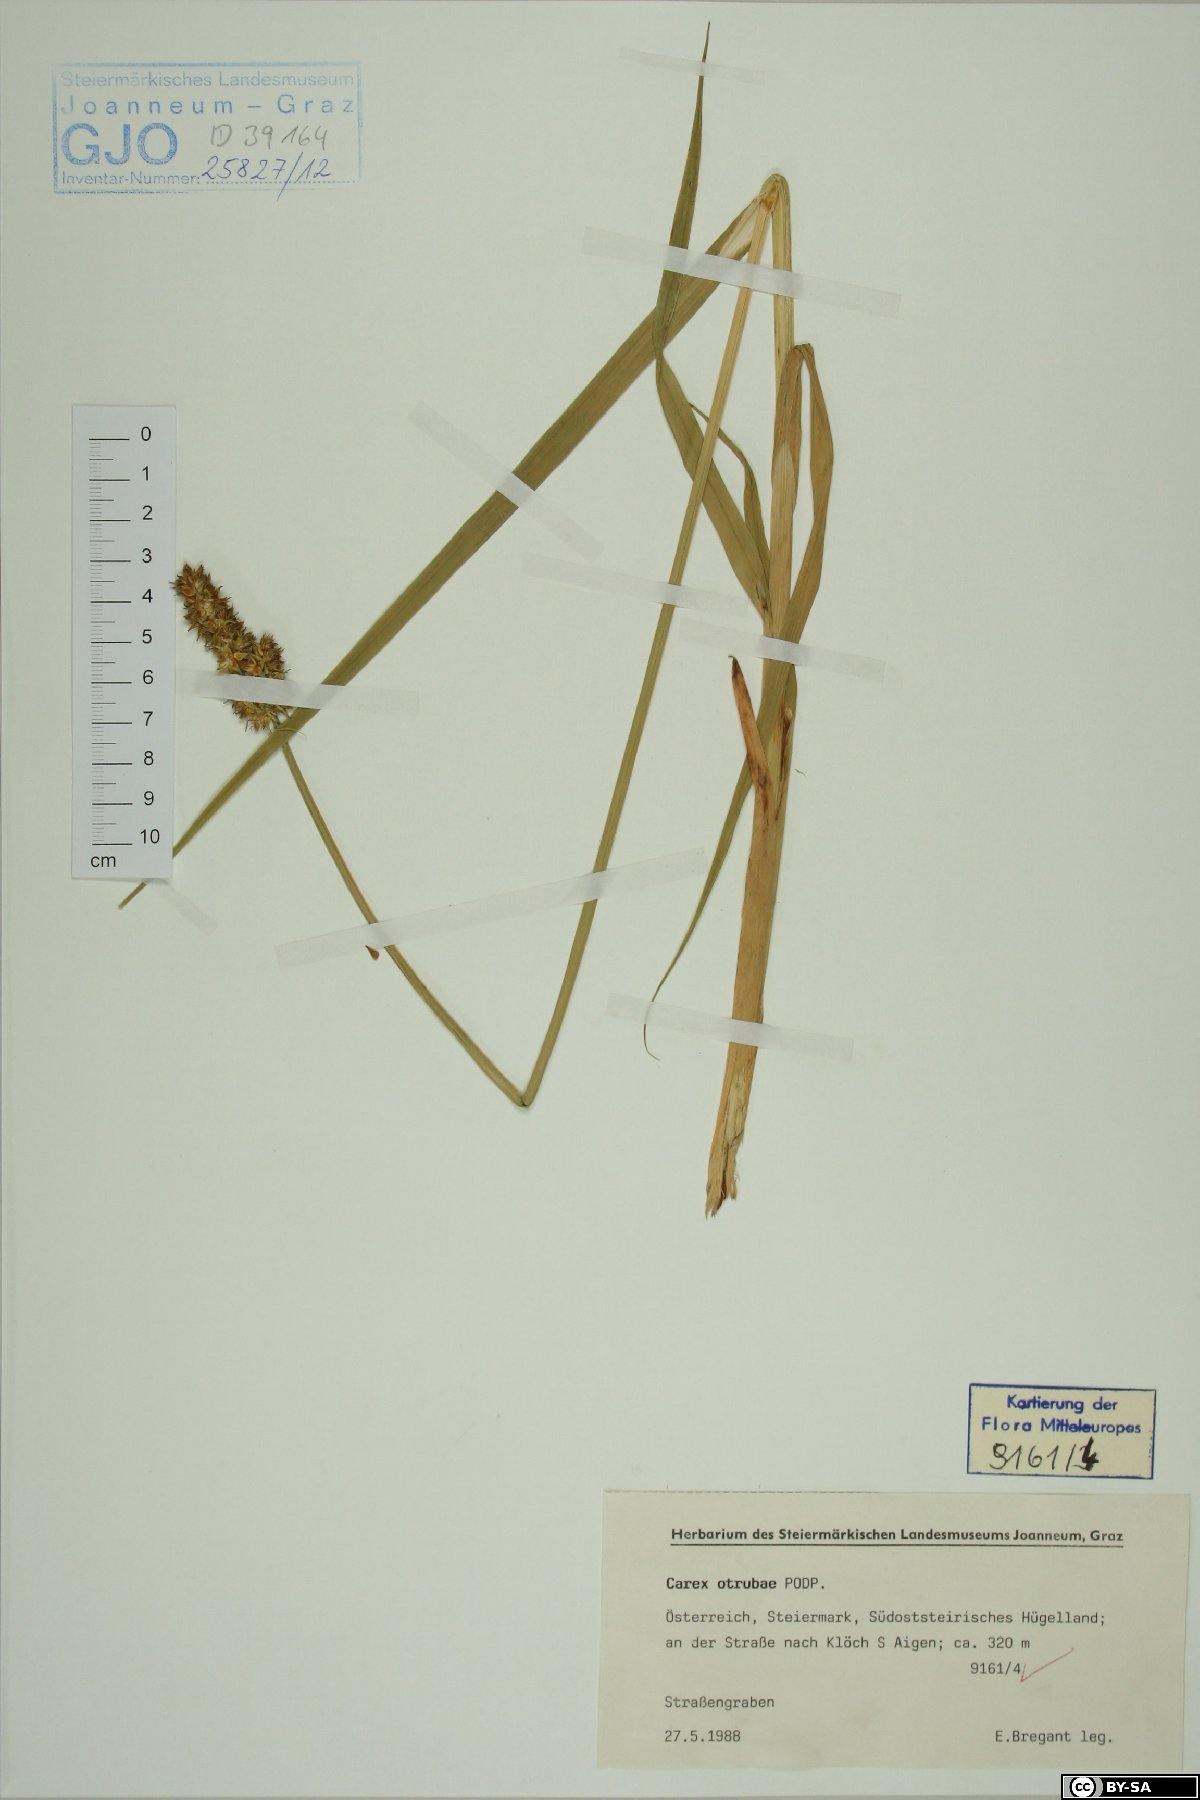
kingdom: Plantae
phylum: Tracheophyta
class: Liliopsida
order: Poales
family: Cyperaceae
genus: Carex
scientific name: Carex otrubae
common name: False fox-sedge
